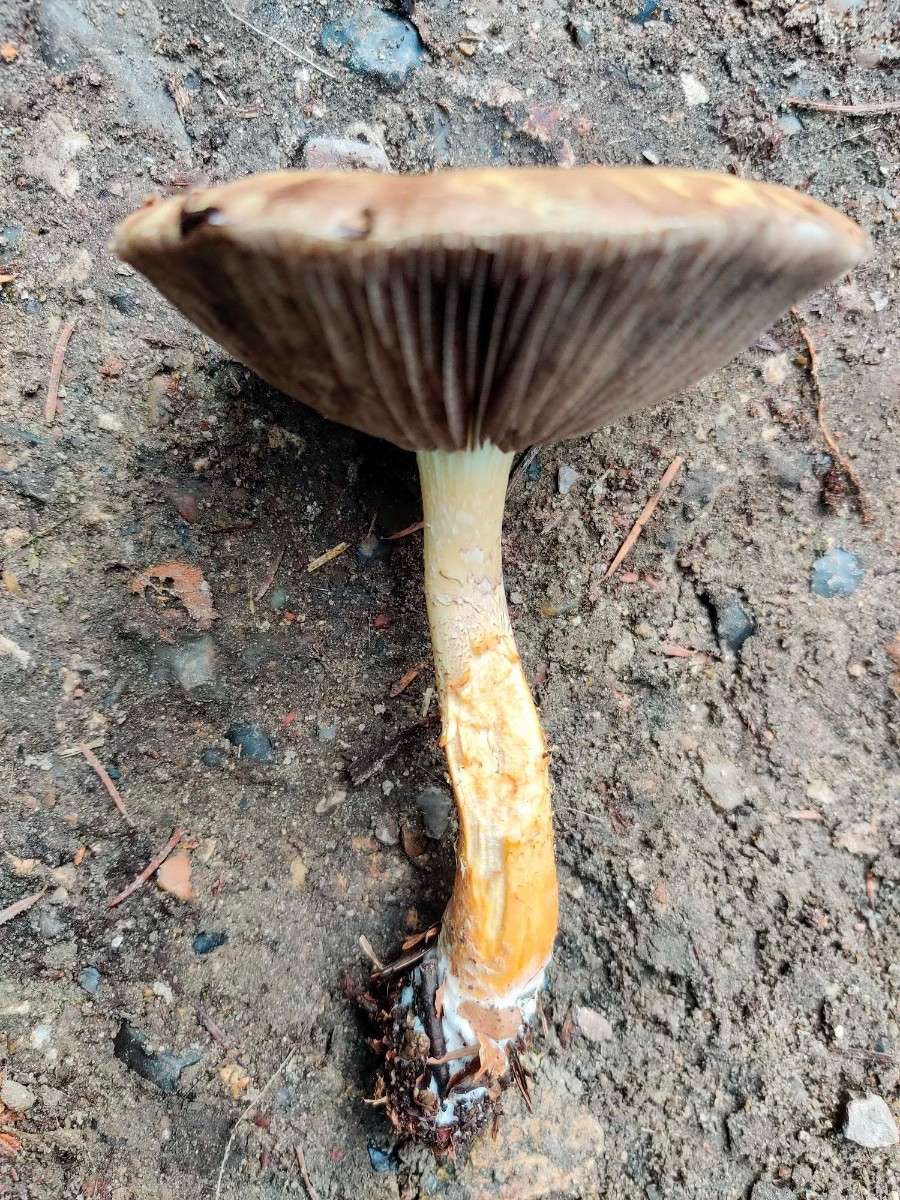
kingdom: Fungi
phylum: Basidiomycota
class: Agaricomycetes
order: Agaricales
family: Strophariaceae
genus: Stropharia
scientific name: Stropharia hornemannii
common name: nordisk bredblad
